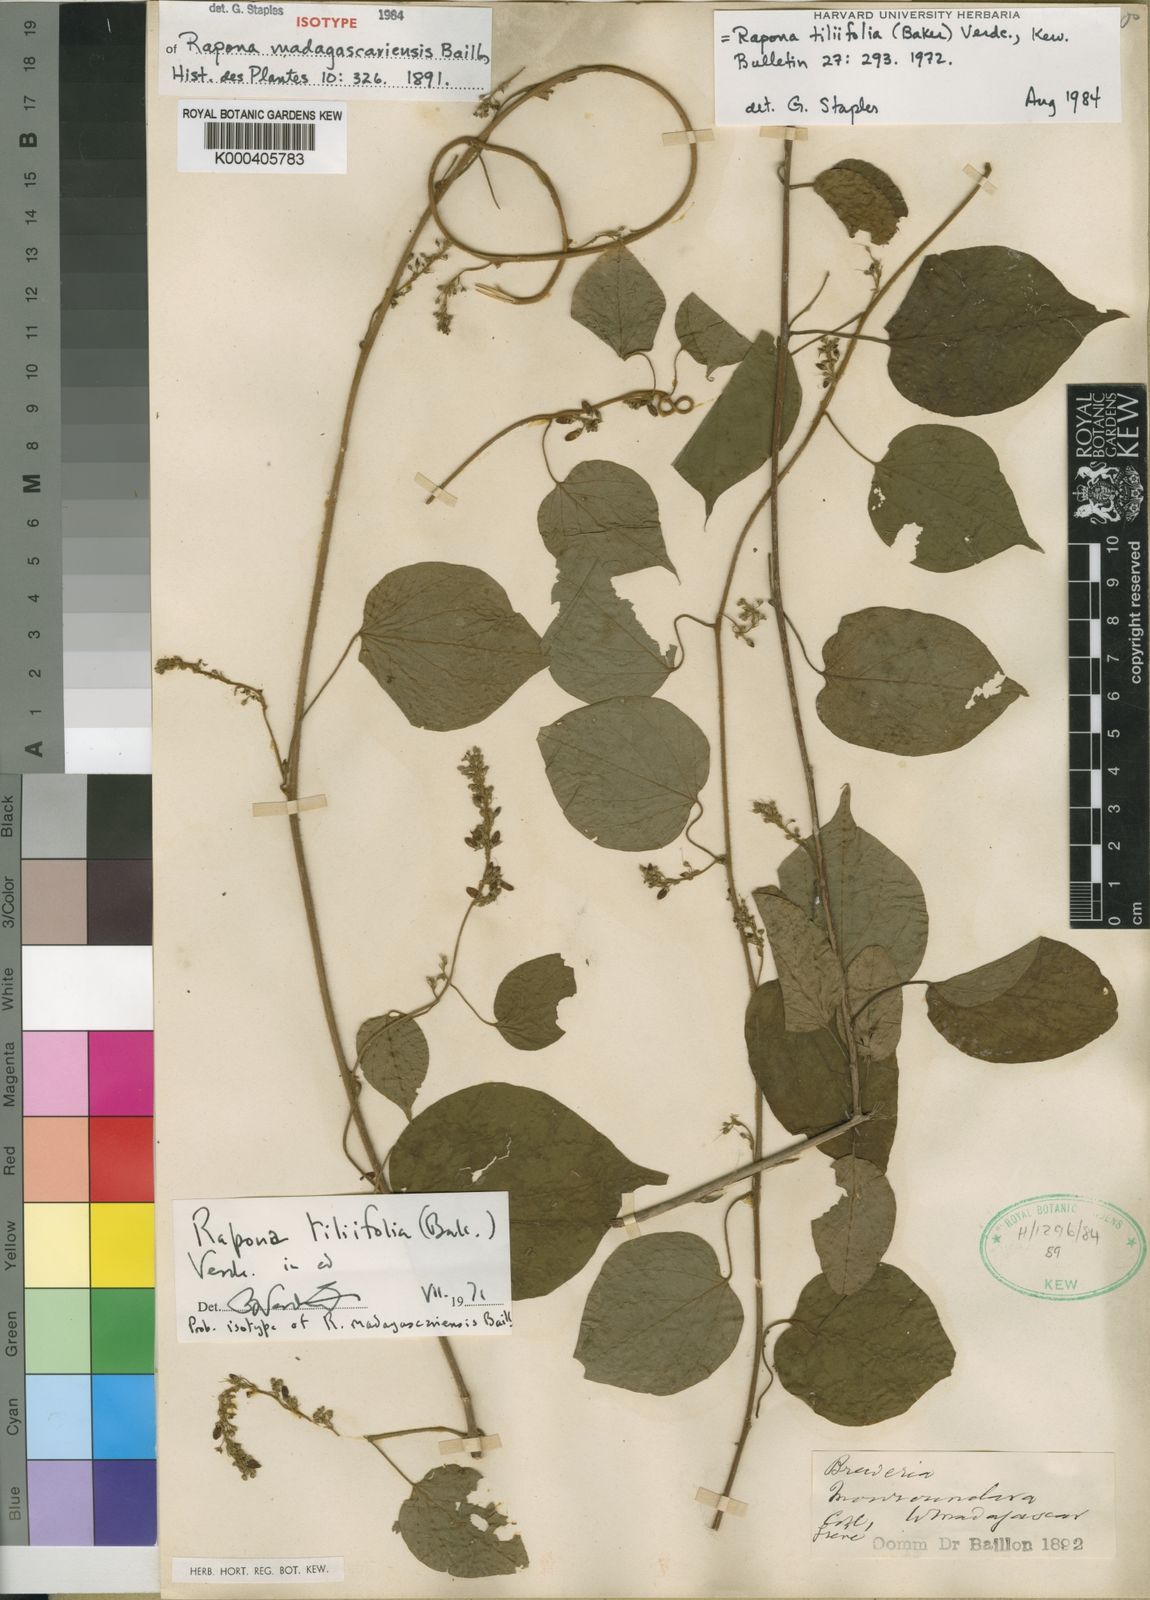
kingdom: Plantae
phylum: Tracheophyta
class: Magnoliopsida
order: Solanales
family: Convolvulaceae
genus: Rapona
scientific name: Rapona tiliifolia
